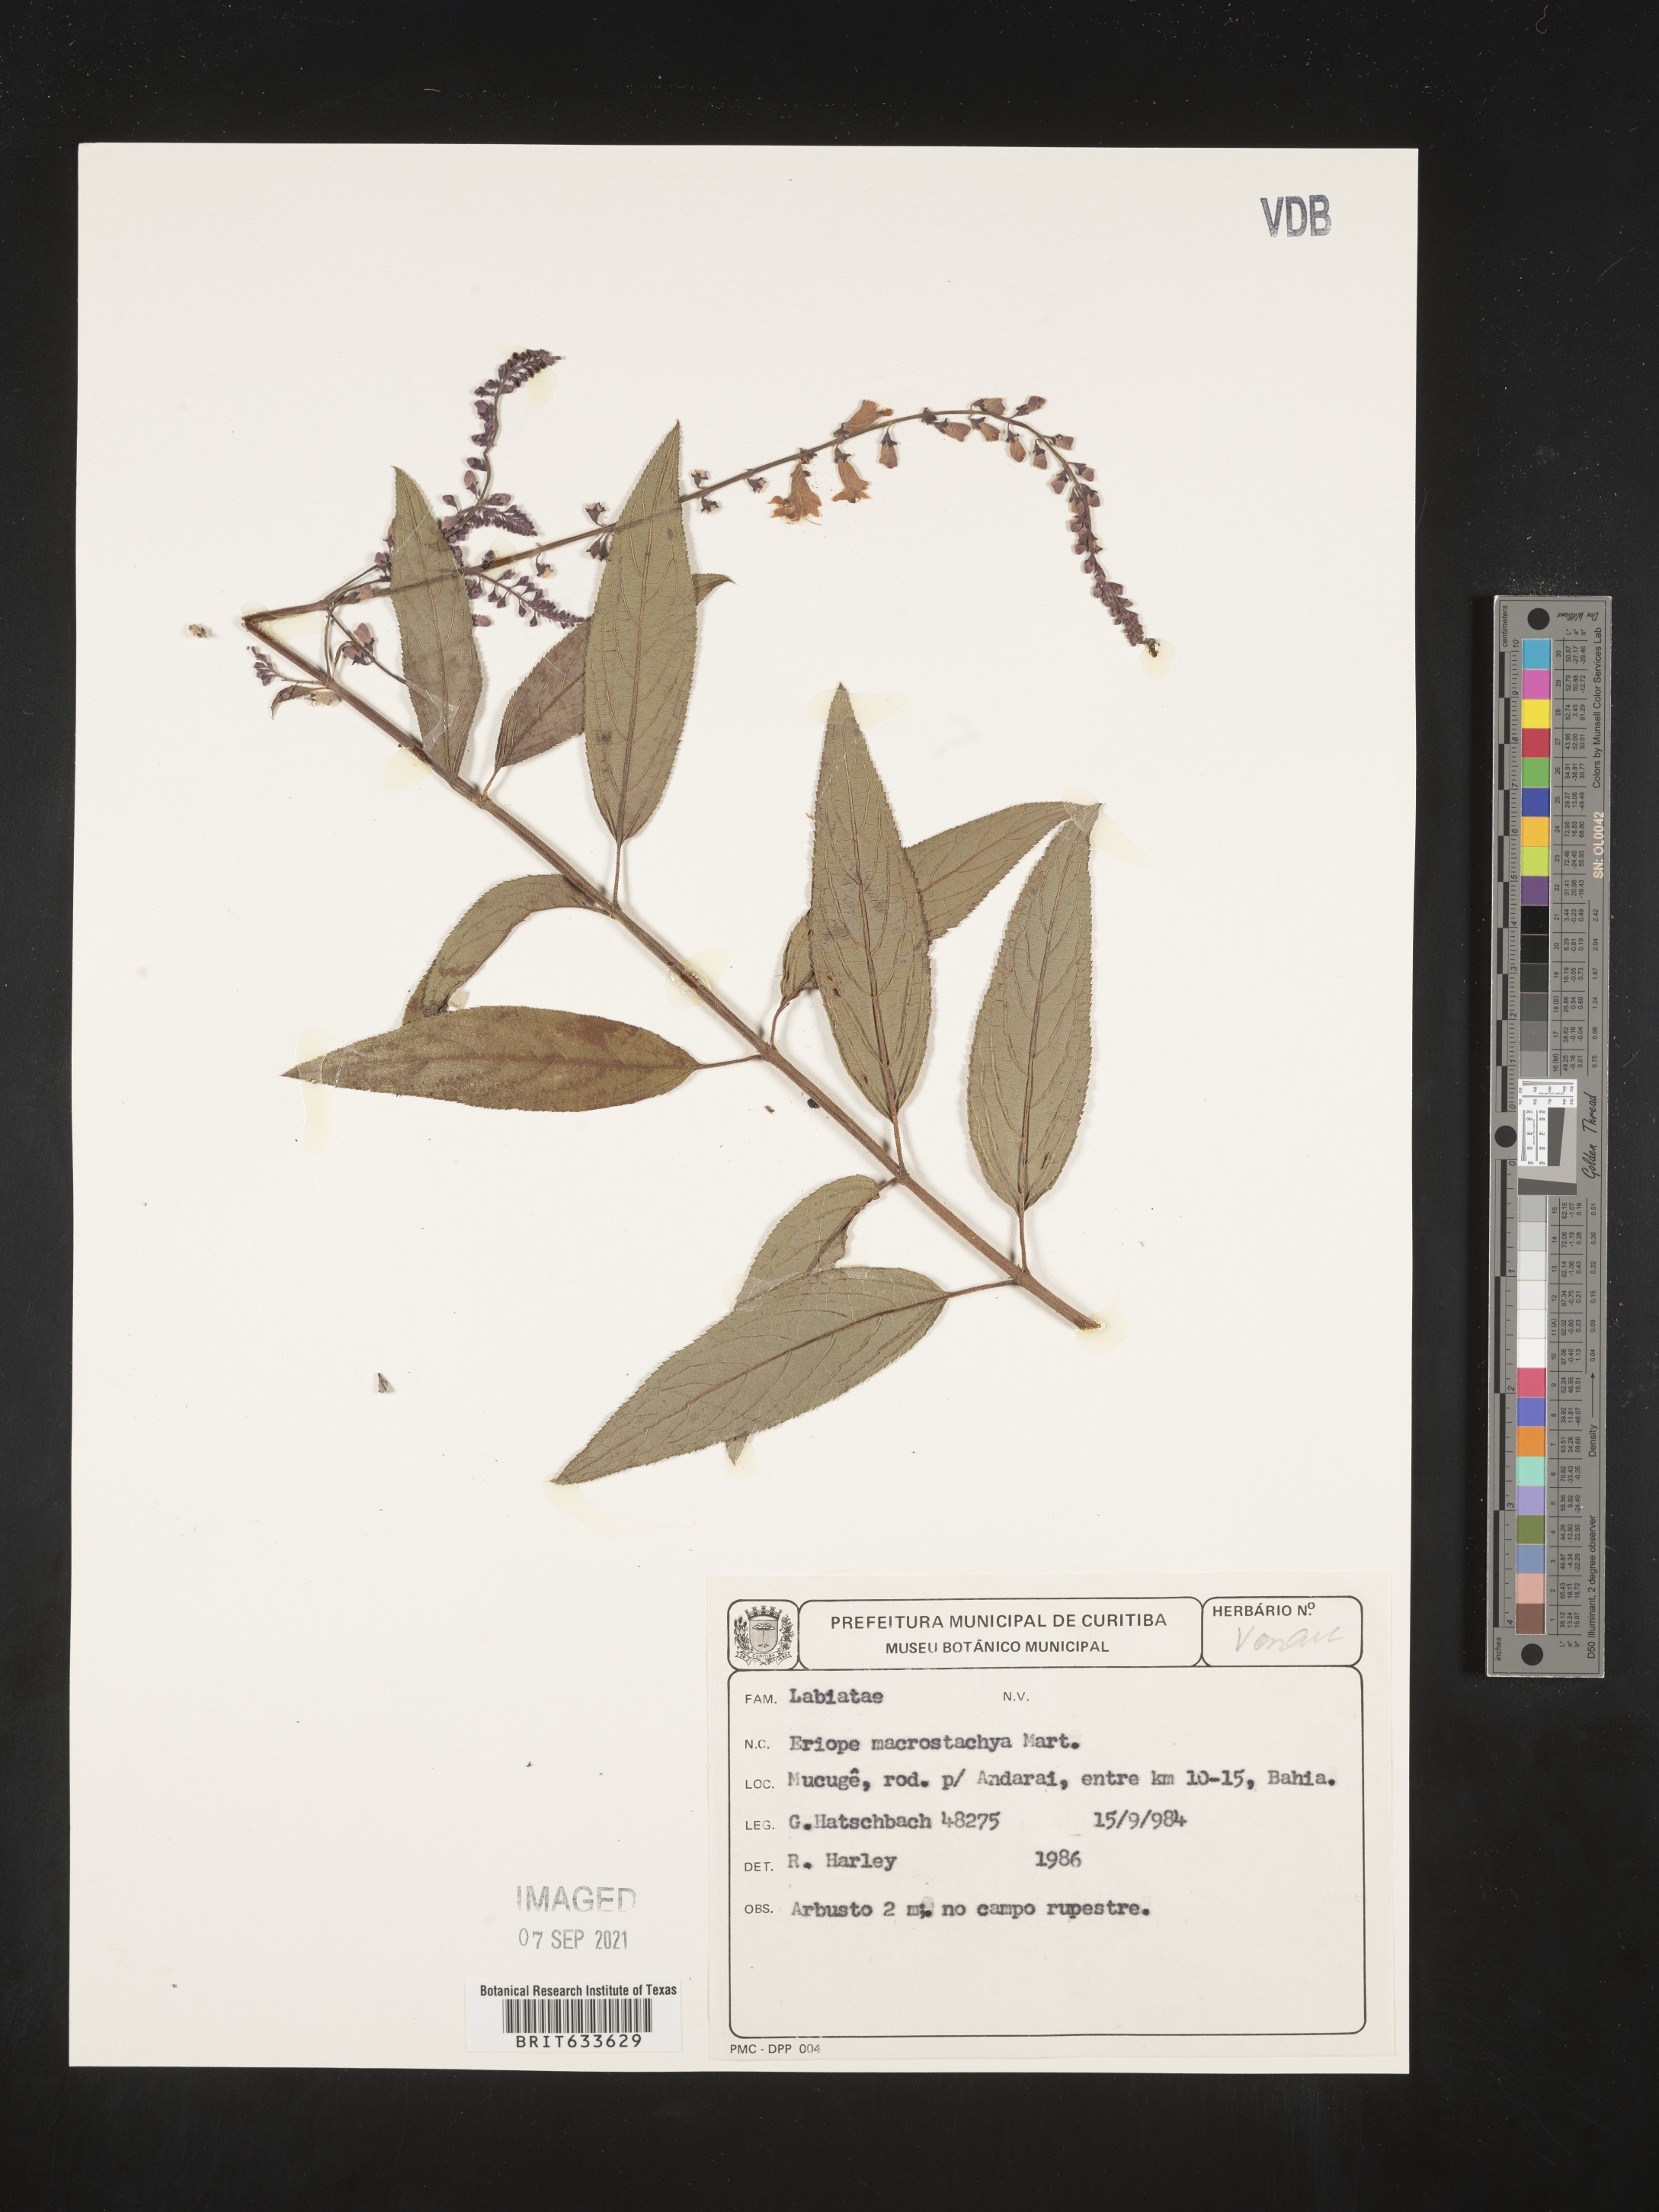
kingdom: Plantae
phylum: Tracheophyta
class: Magnoliopsida
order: Lamiales
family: Lamiaceae
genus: Eriope
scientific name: Eriope
